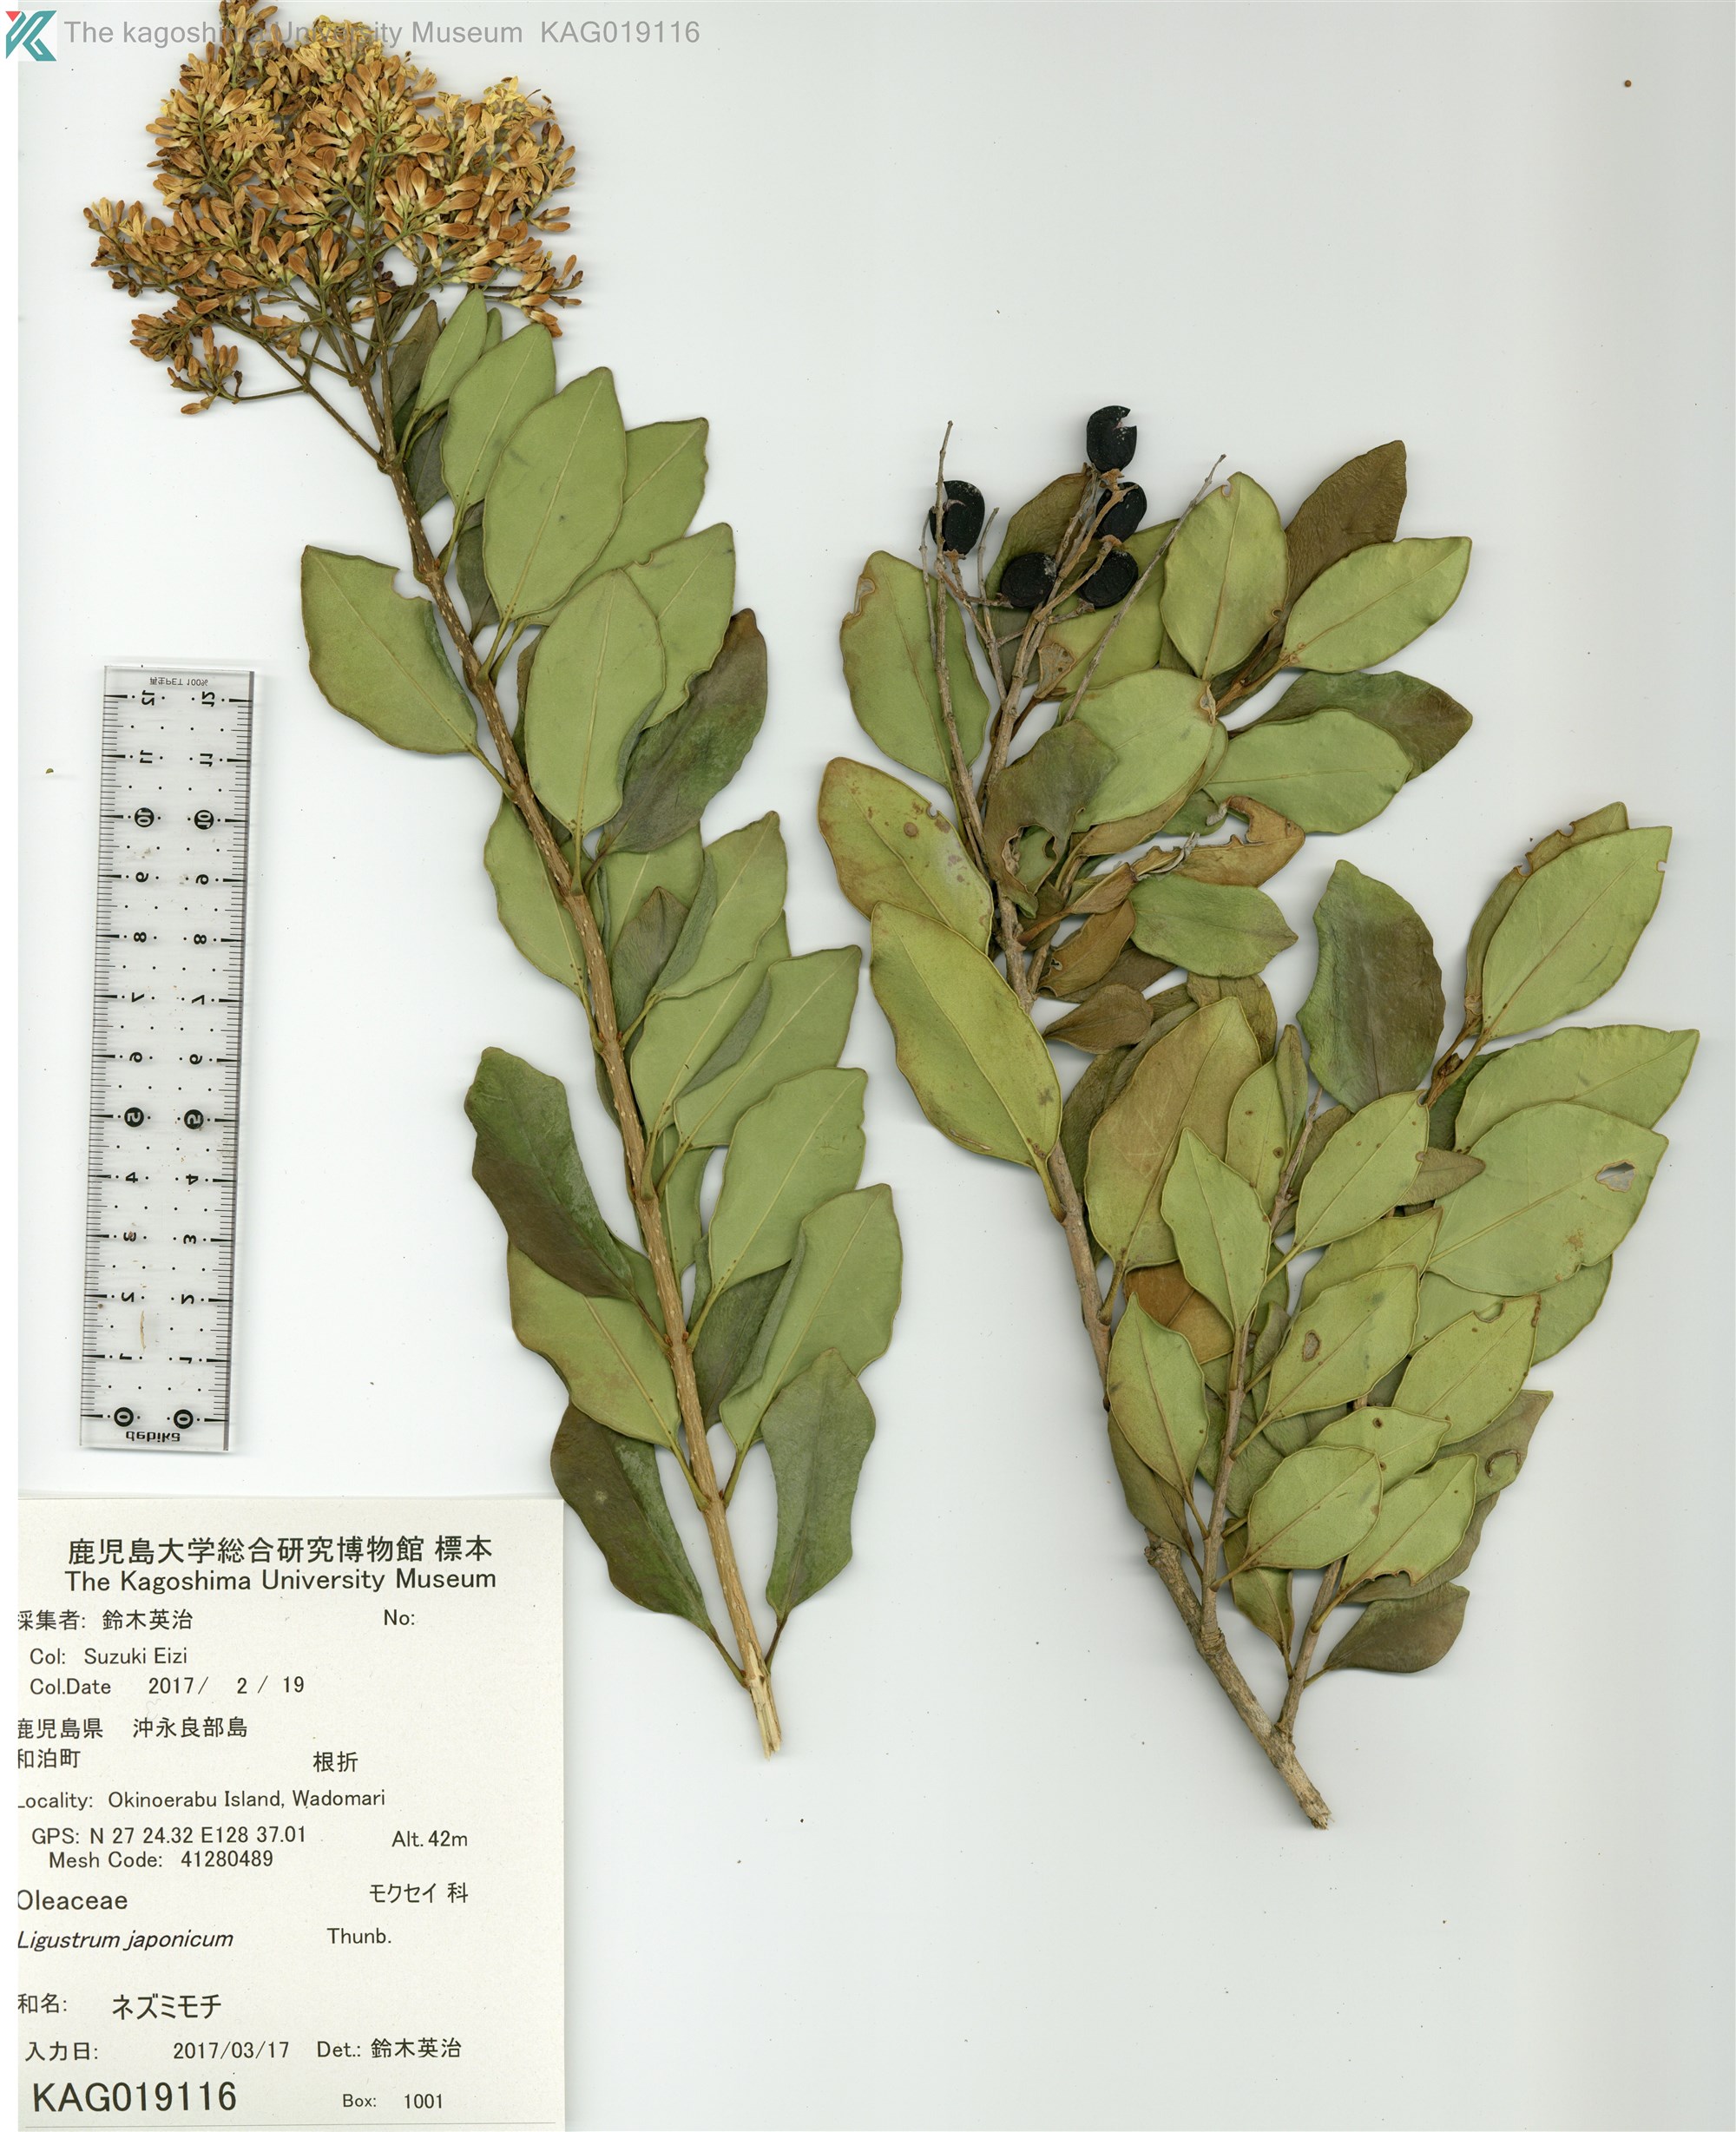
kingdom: Plantae
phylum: Tracheophyta
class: Magnoliopsida
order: Lamiales
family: Oleaceae
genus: Ligustrum
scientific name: Ligustrum japonicum
